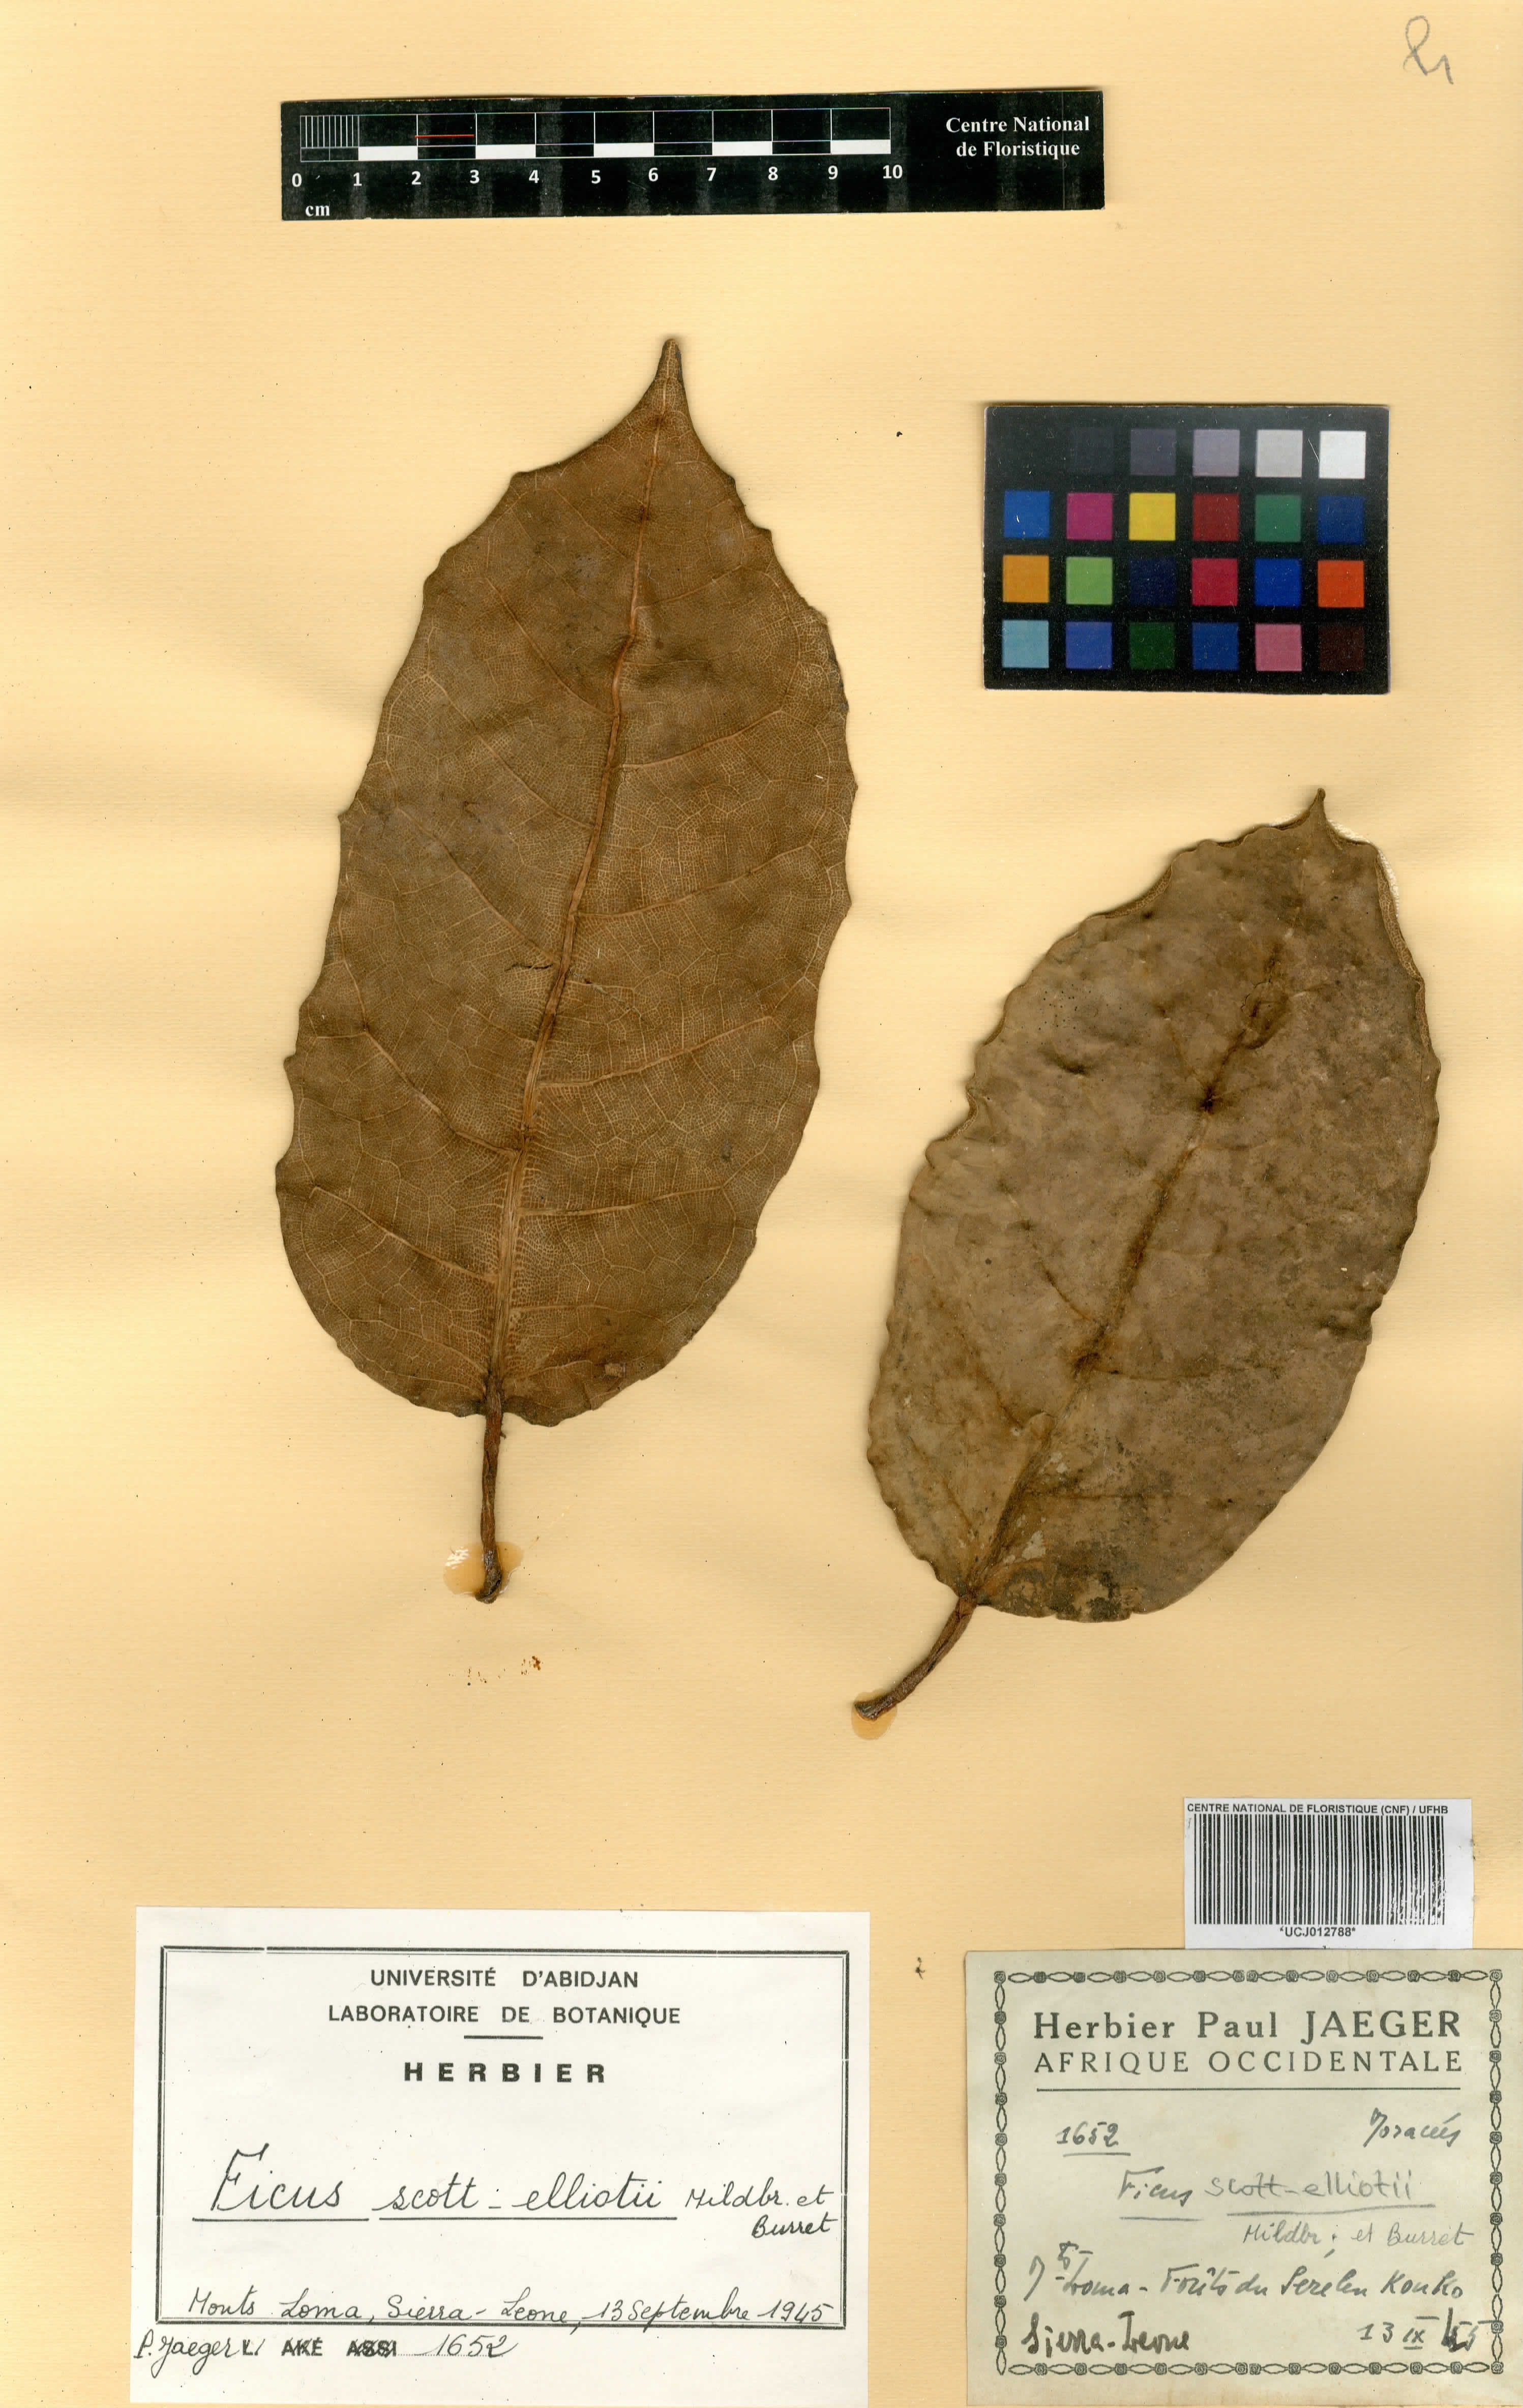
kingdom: Plantae
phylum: Tracheophyta
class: Magnoliopsida
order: Rosales
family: Moraceae
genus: Ficus
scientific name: Ficus scott-elliottii
